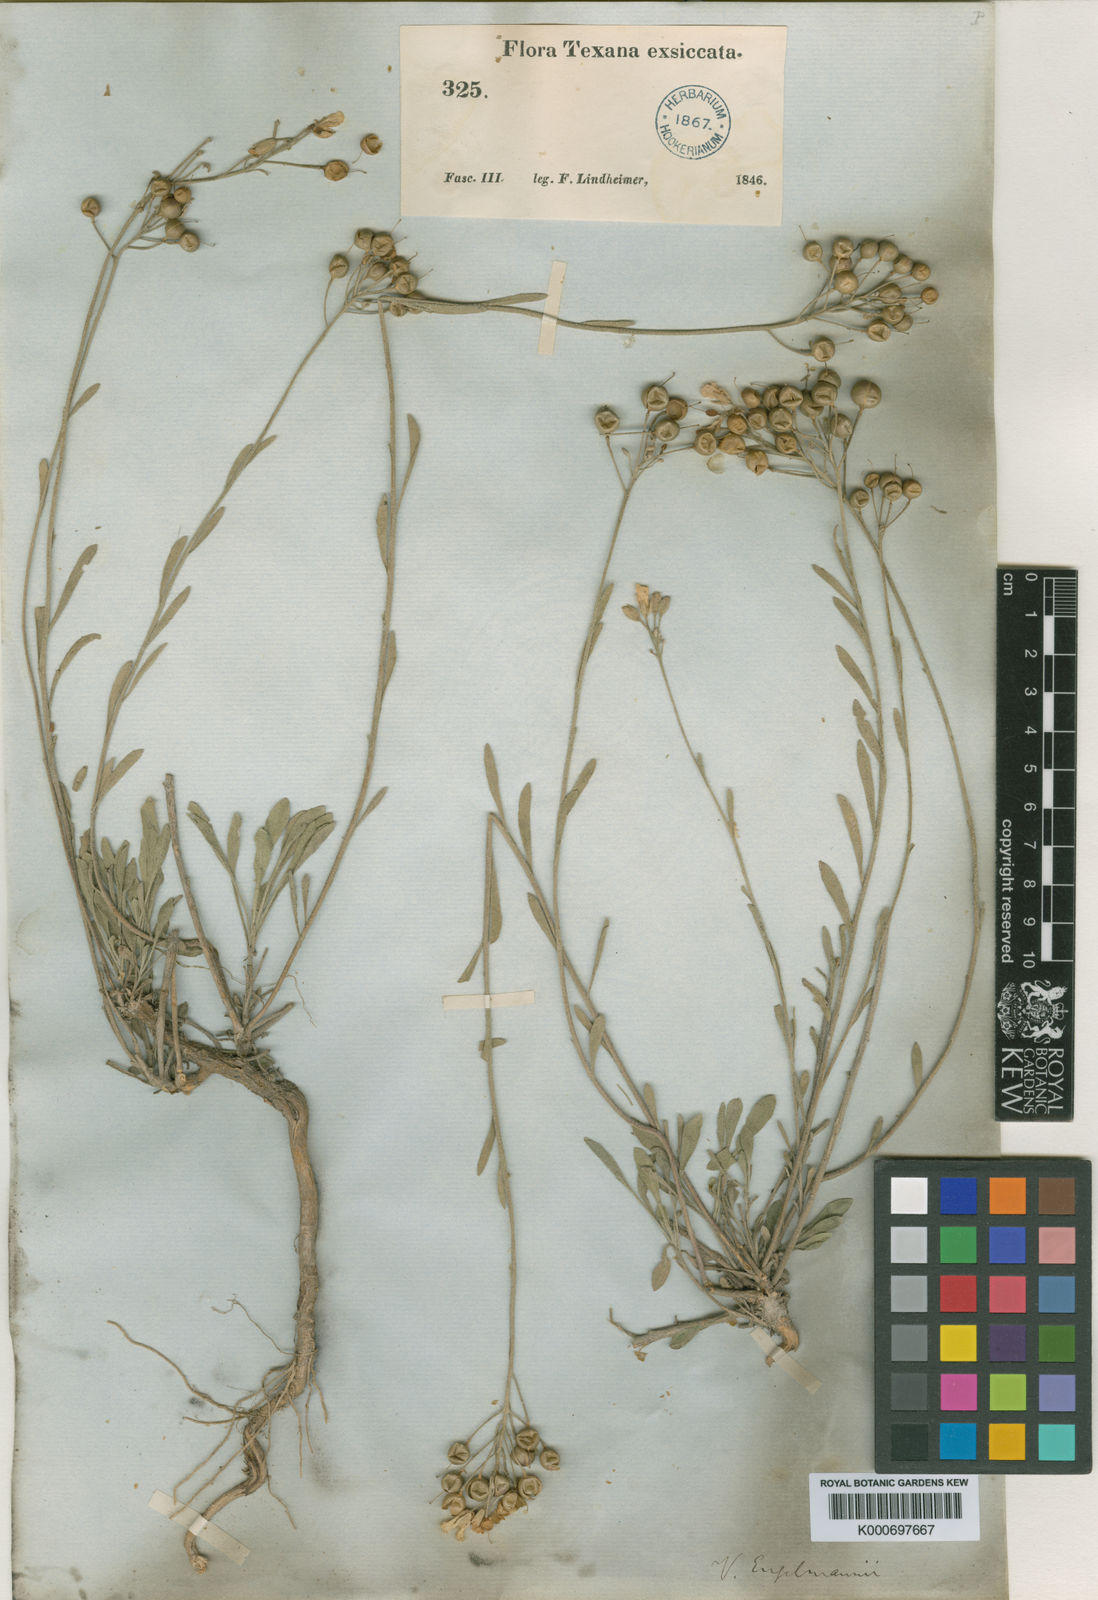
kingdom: Plantae
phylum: Tracheophyta
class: Magnoliopsida
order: Brassicales
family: Brassicaceae
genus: Physaria
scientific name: Physaria engelmannii
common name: Engelmann's bladderpod
